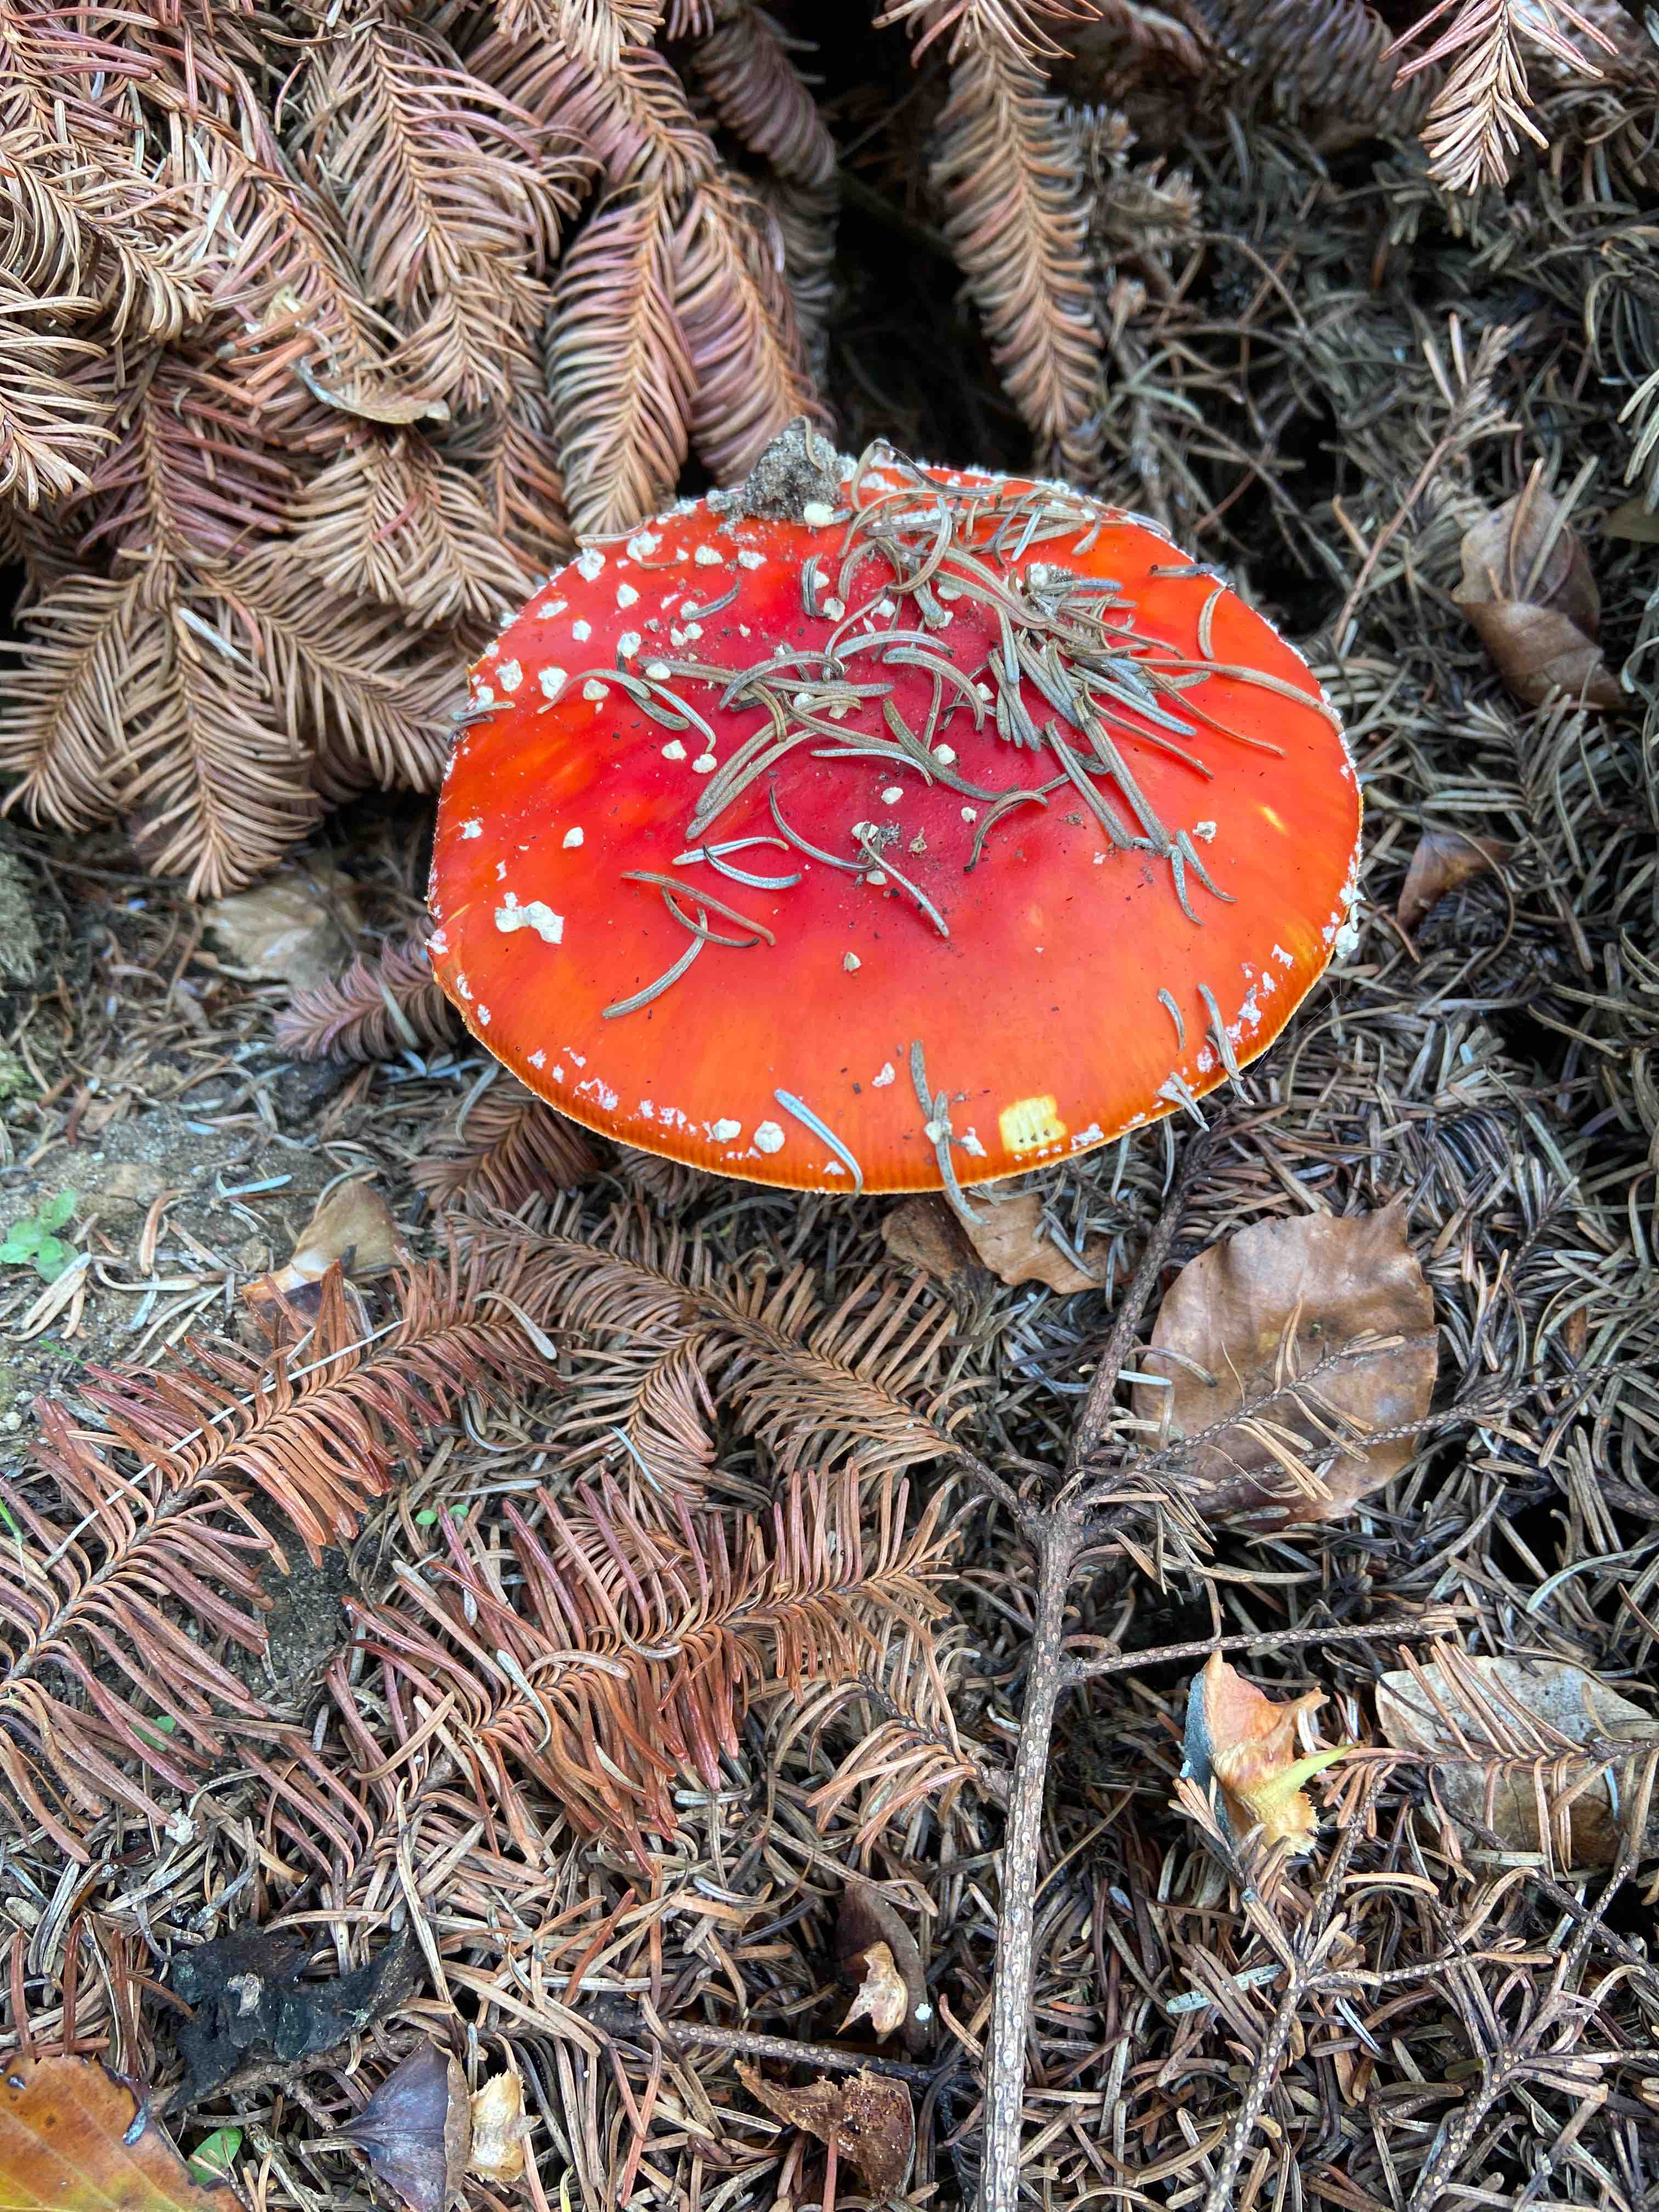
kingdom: Fungi
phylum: Basidiomycota
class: Agaricomycetes
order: Agaricales
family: Amanitaceae
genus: Amanita
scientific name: Amanita muscaria
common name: rød fluesvamp
